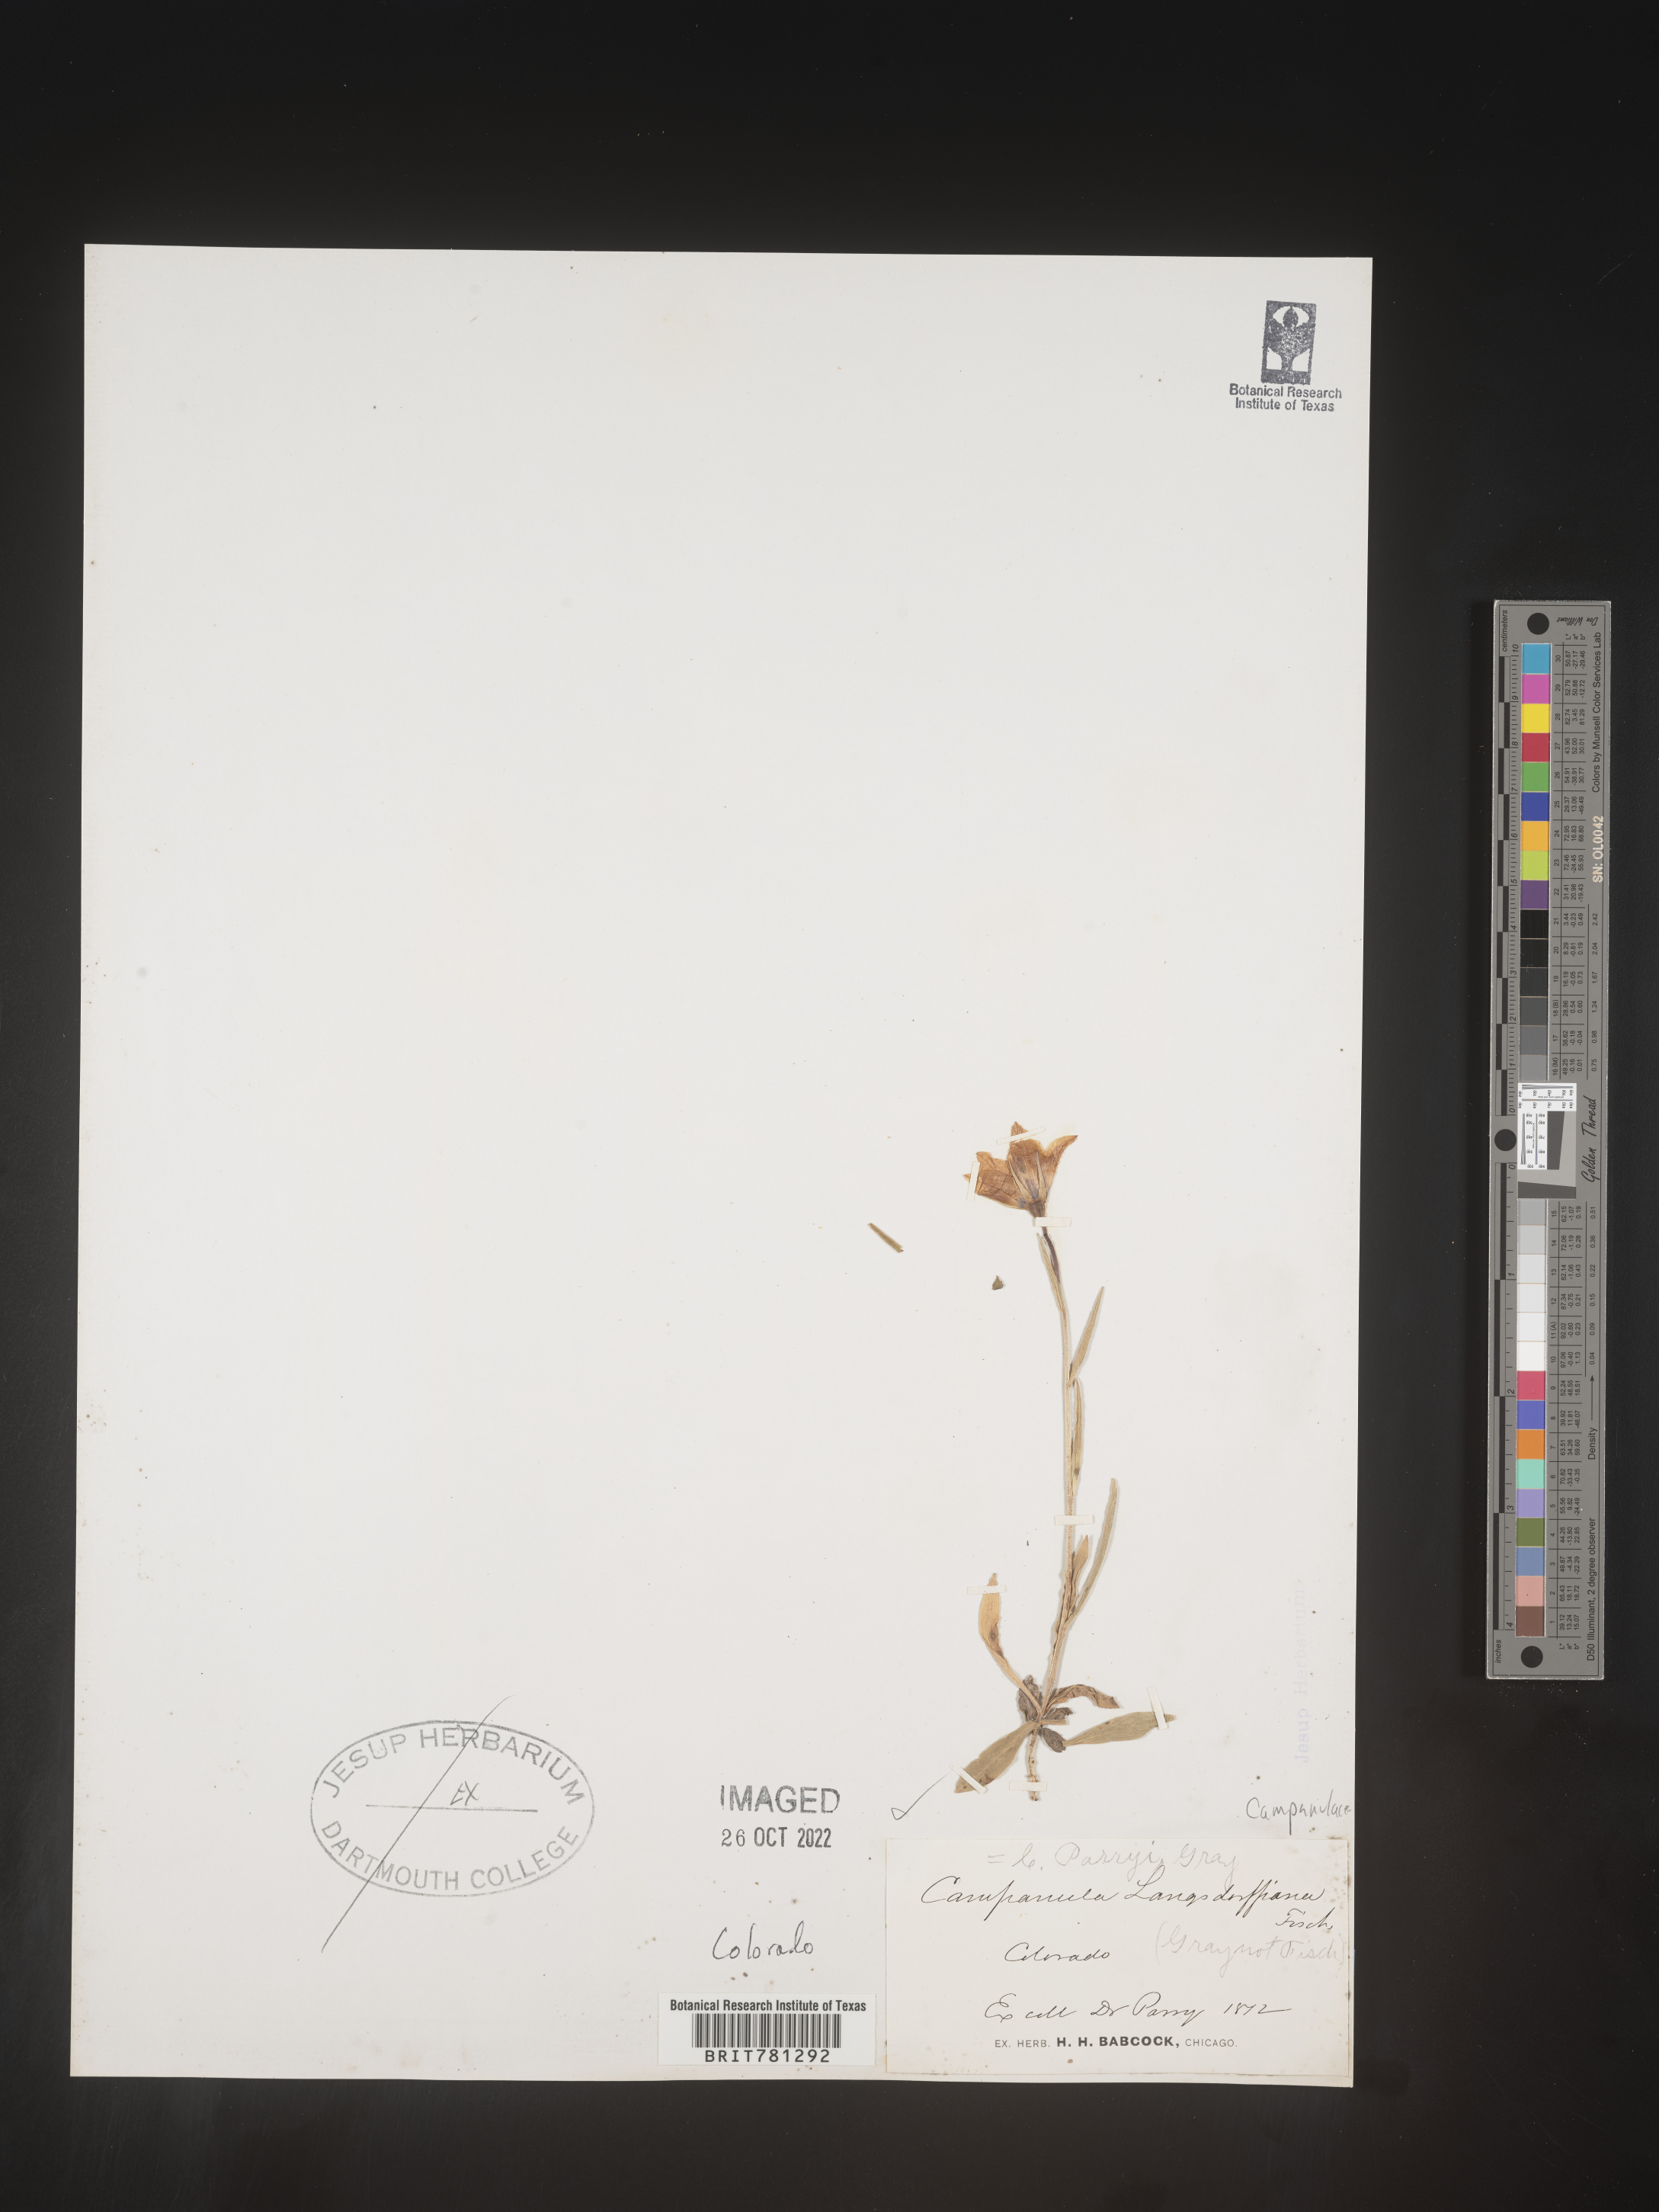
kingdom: Plantae
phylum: Tracheophyta
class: Magnoliopsida
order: Asterales
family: Campanulaceae
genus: Campanula
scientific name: Campanula parryi
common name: Rocky mountain bellflower
